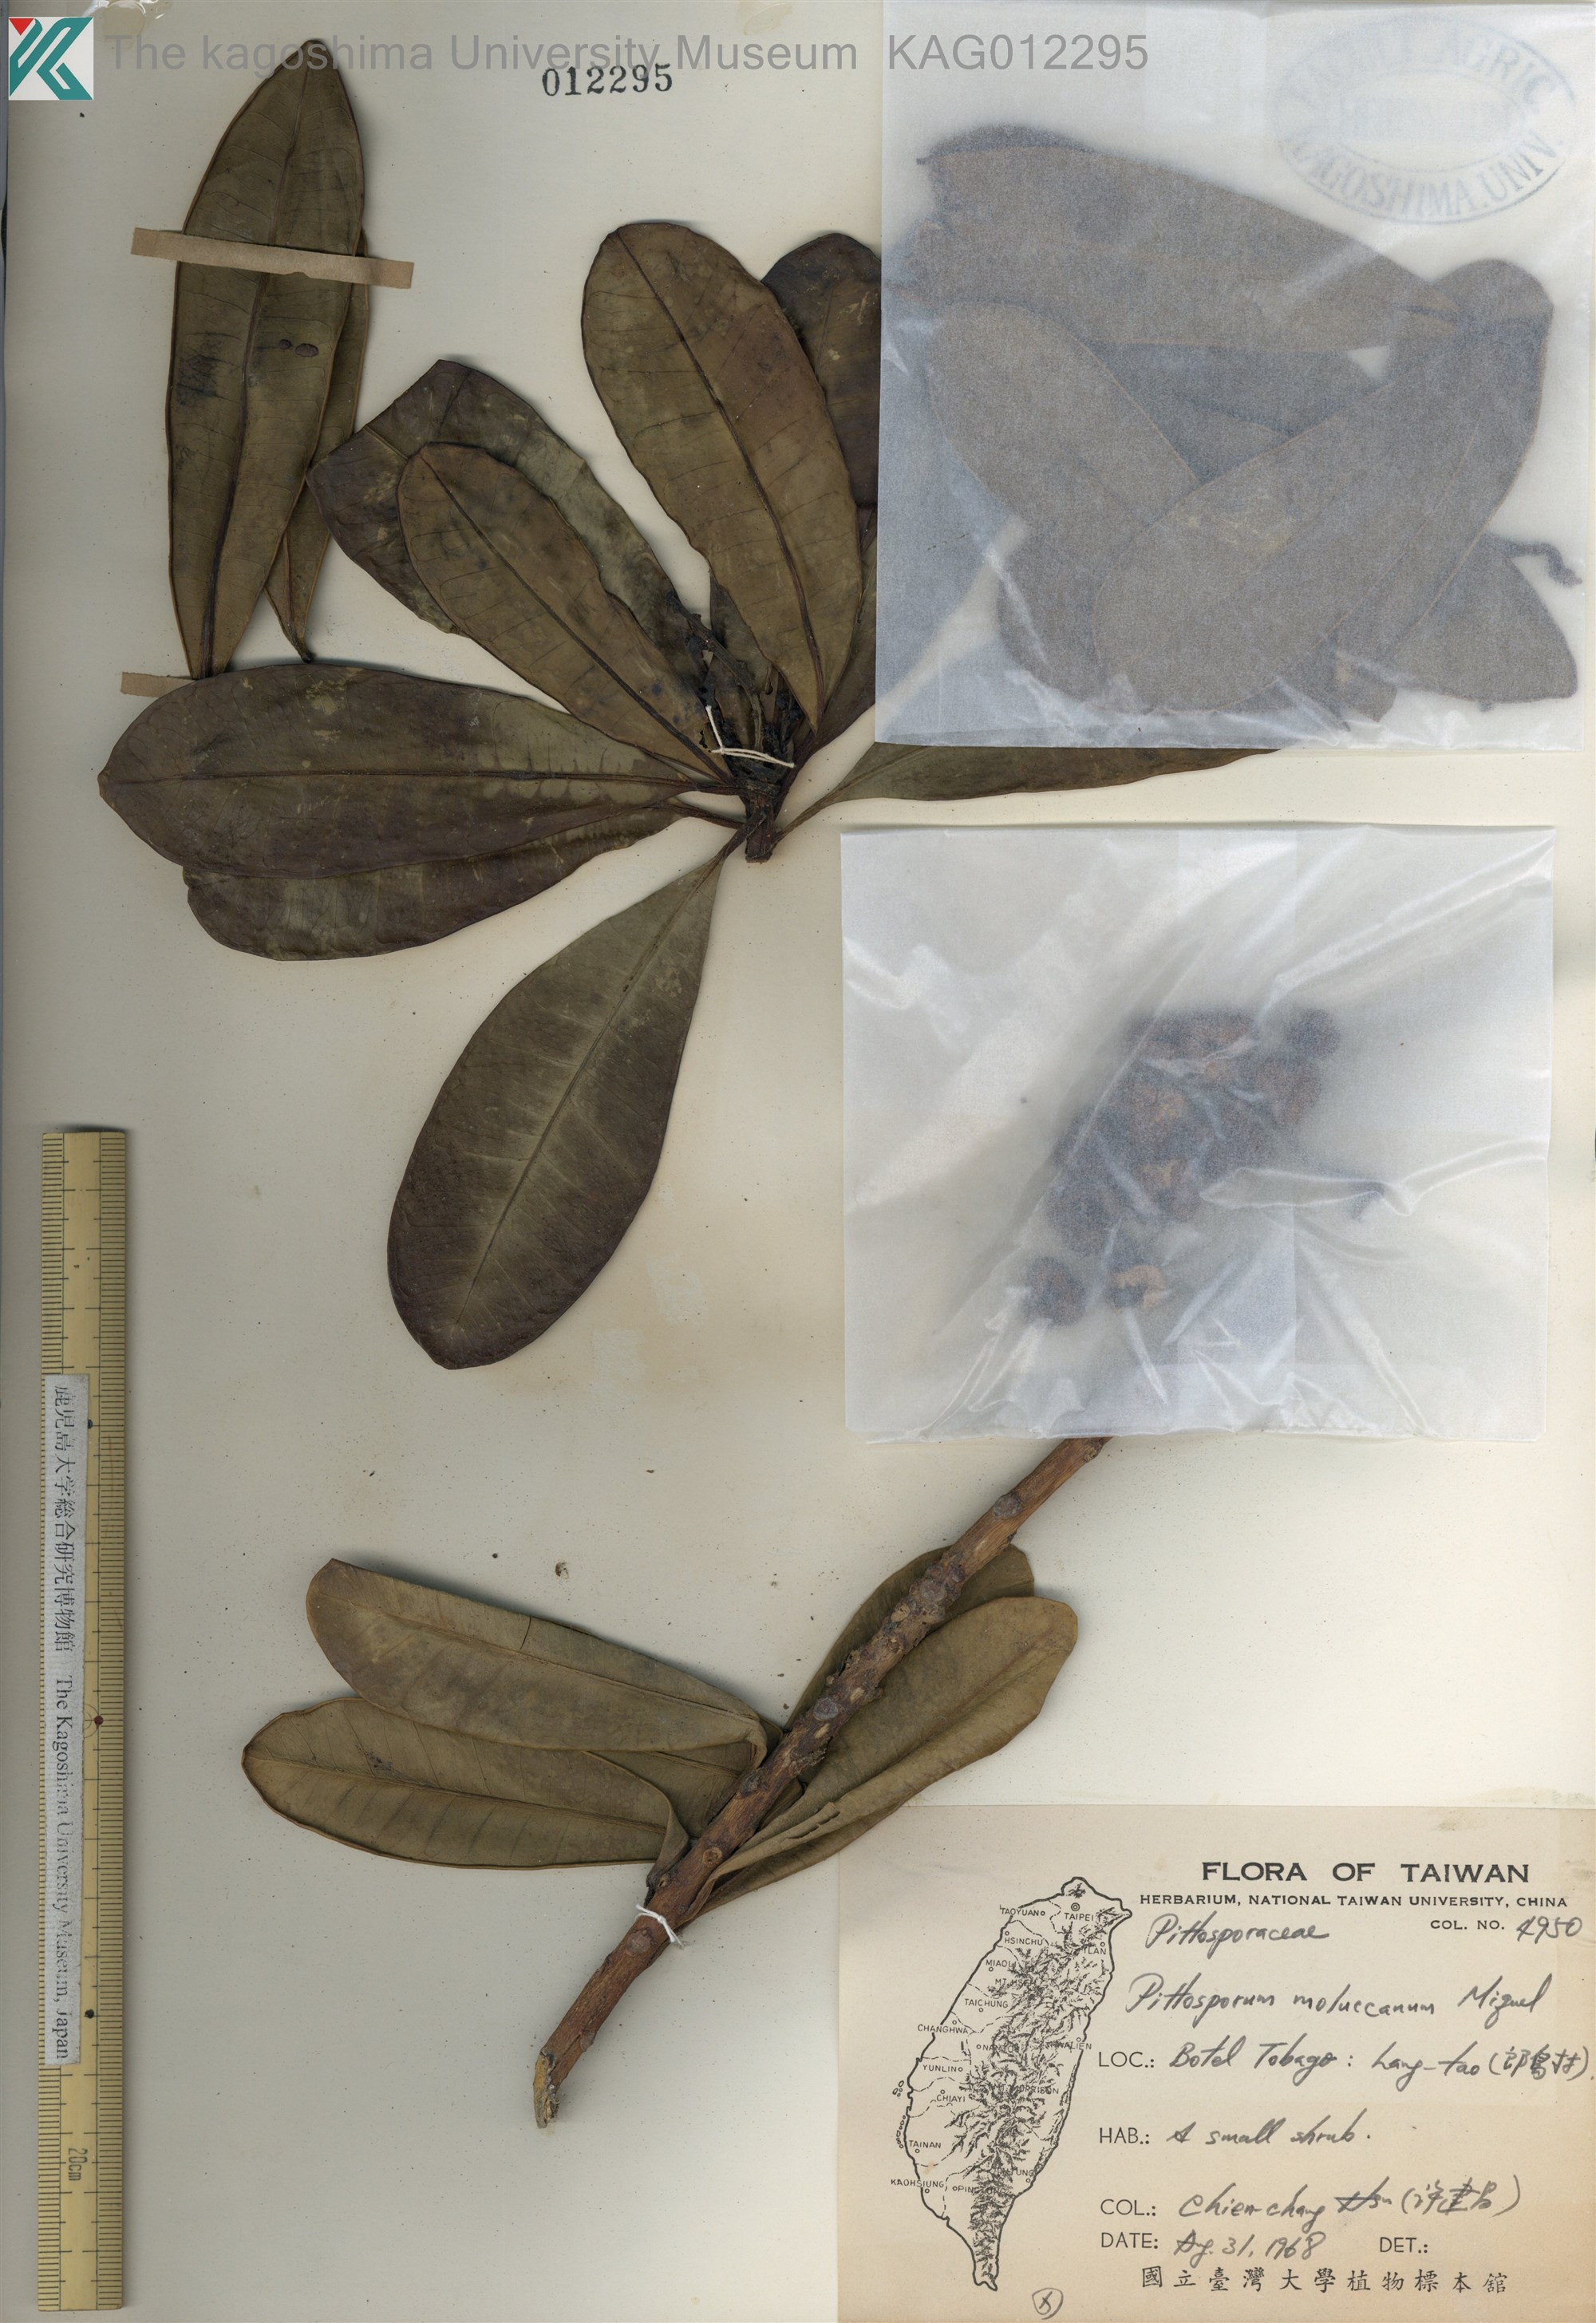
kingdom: Plantae
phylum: Tracheophyta
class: Magnoliopsida
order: Malpighiales
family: Euphorbiaceae
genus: Excoecaria
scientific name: Excoecaria kawakamii
